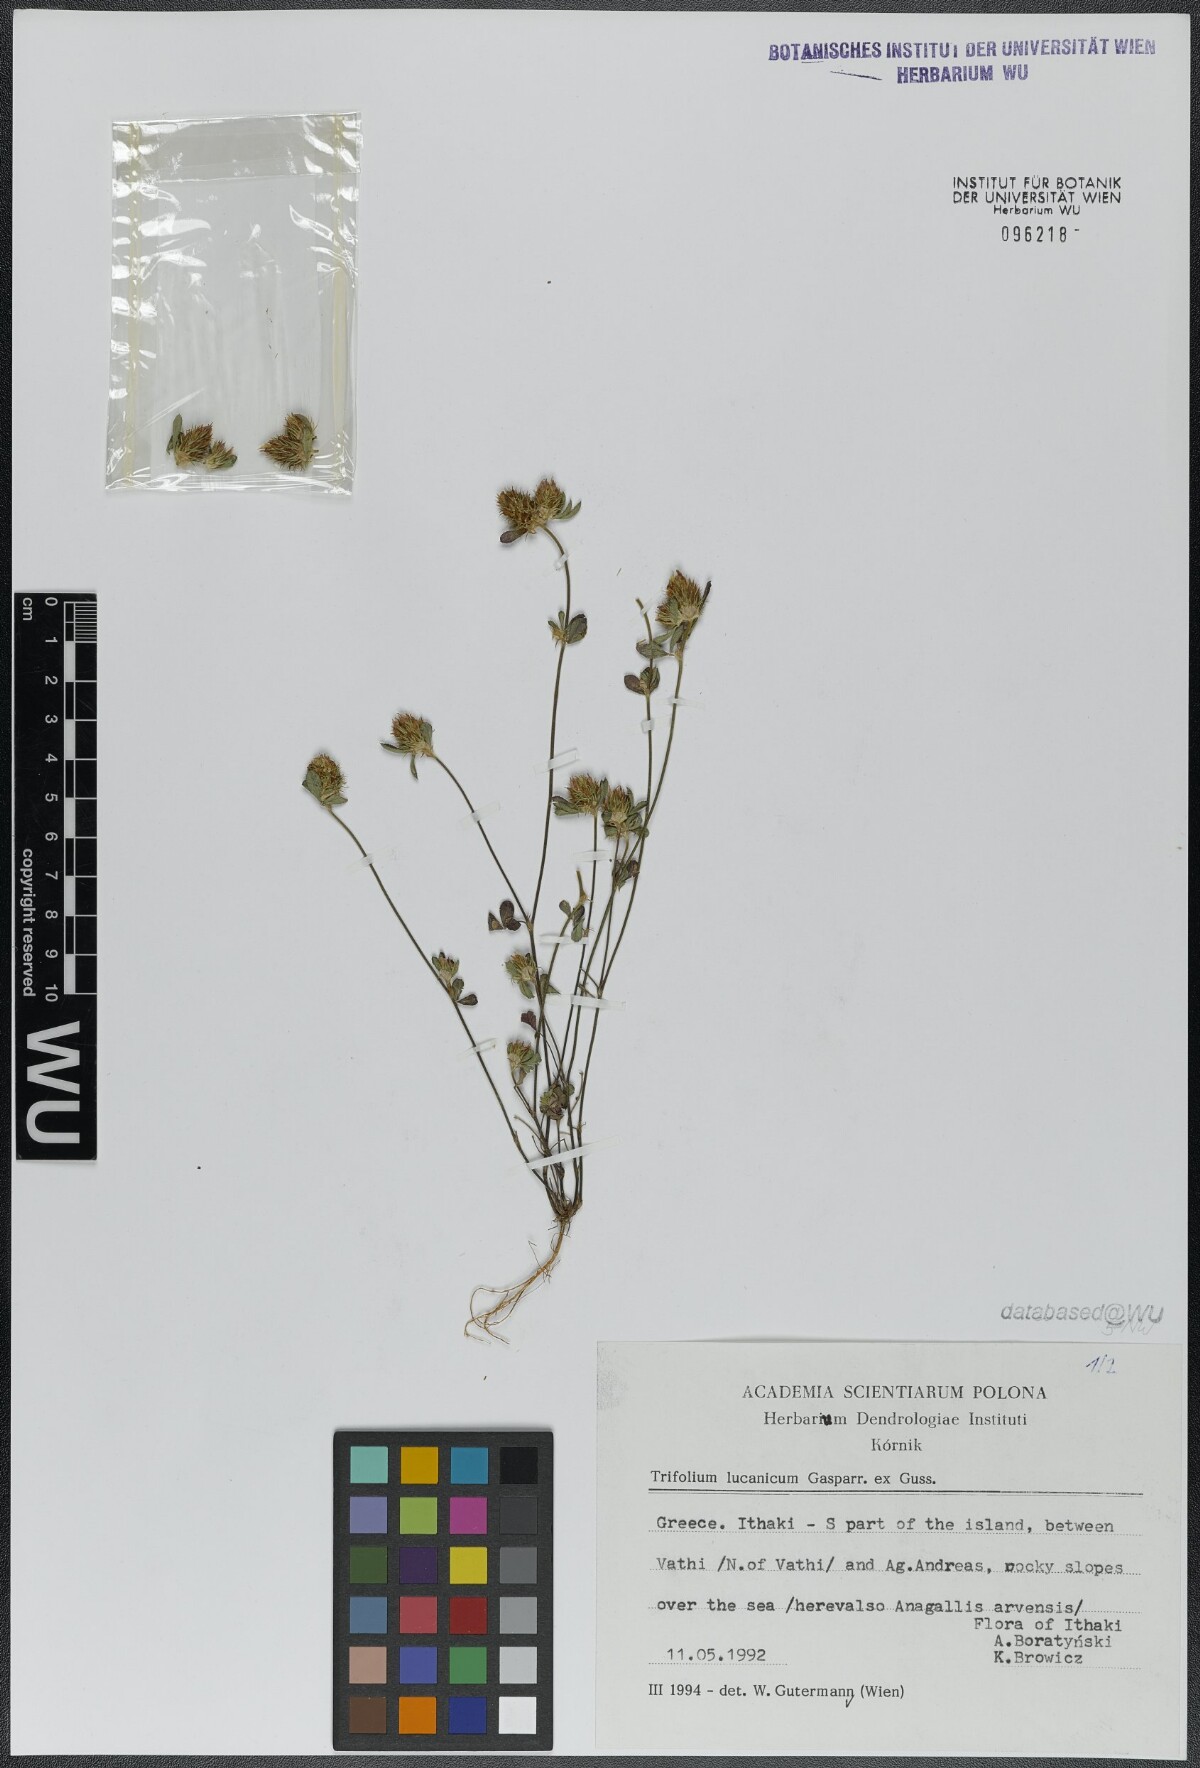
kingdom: Plantae
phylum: Tracheophyta
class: Magnoliopsida
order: Fabales
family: Fabaceae
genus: Trifolium
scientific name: Trifolium lucanicum
